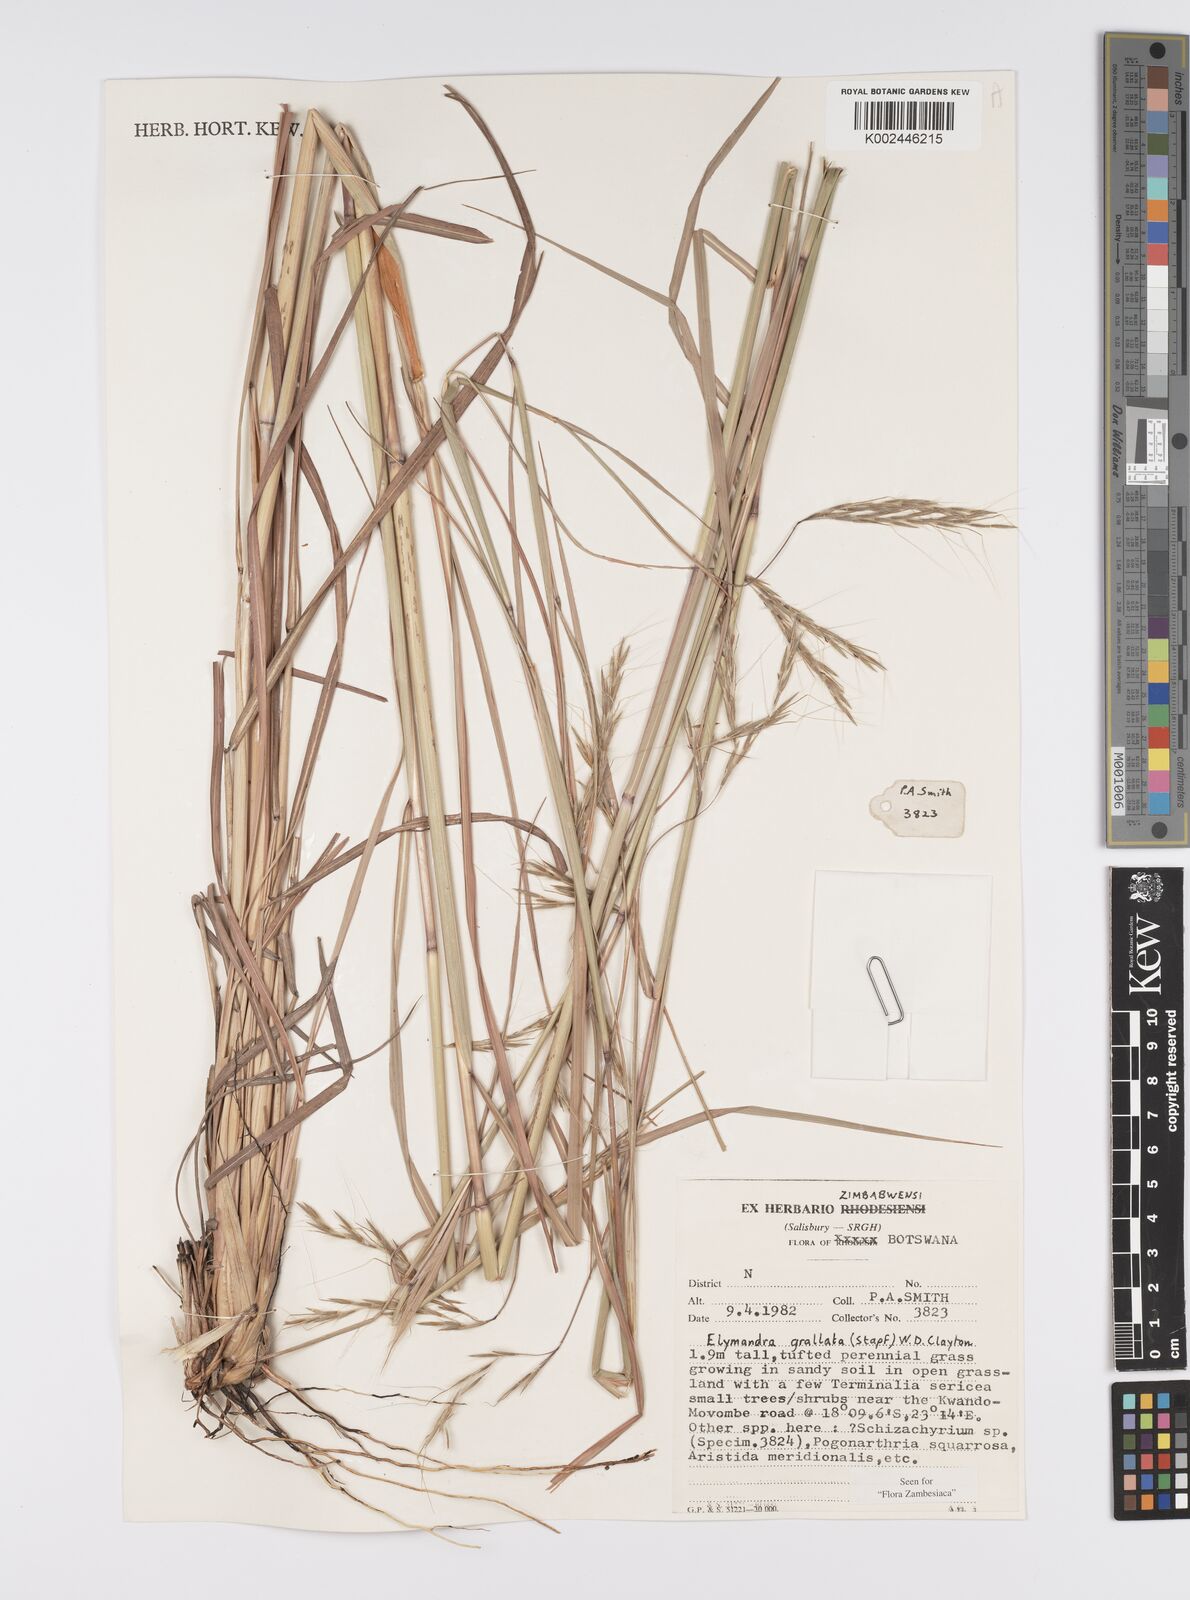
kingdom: Plantae
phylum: Tracheophyta
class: Liliopsida
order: Poales
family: Poaceae
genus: Elymandra
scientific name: Elymandra grallata
